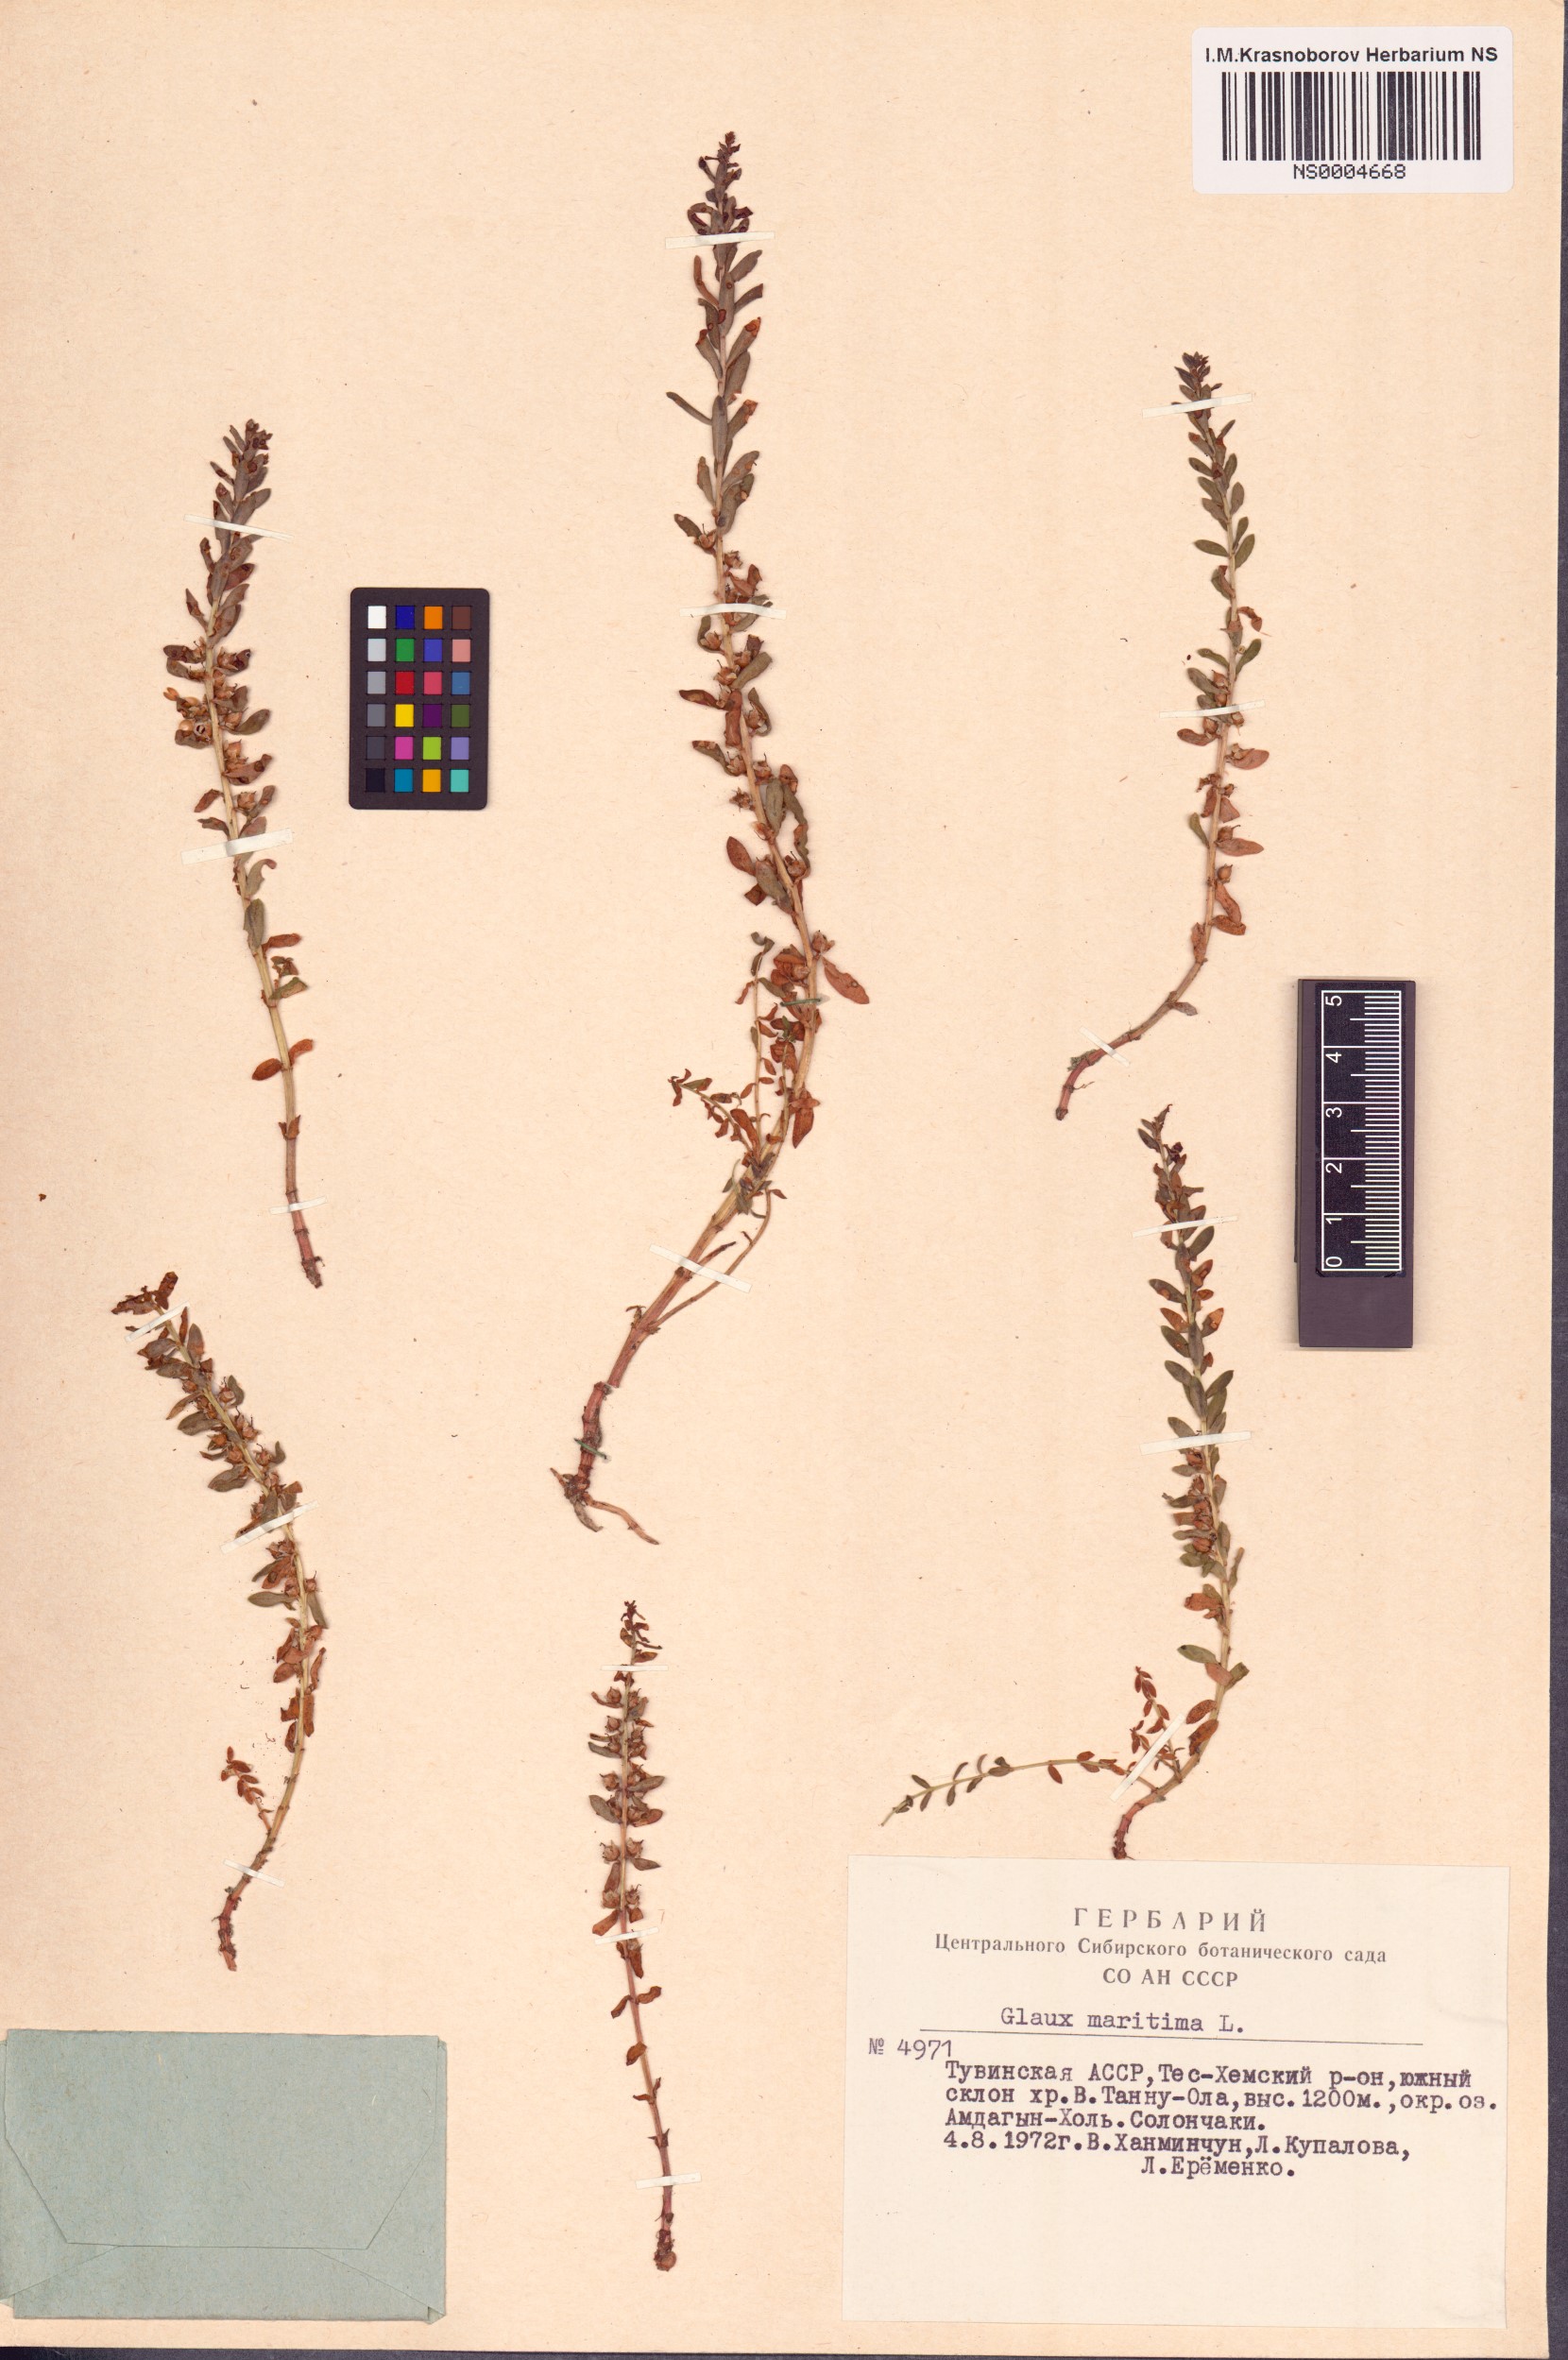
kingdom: Plantae
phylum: Tracheophyta
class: Magnoliopsida
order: Ericales
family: Primulaceae
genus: Lysimachia
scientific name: Lysimachia maritima
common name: Sea milkwort
